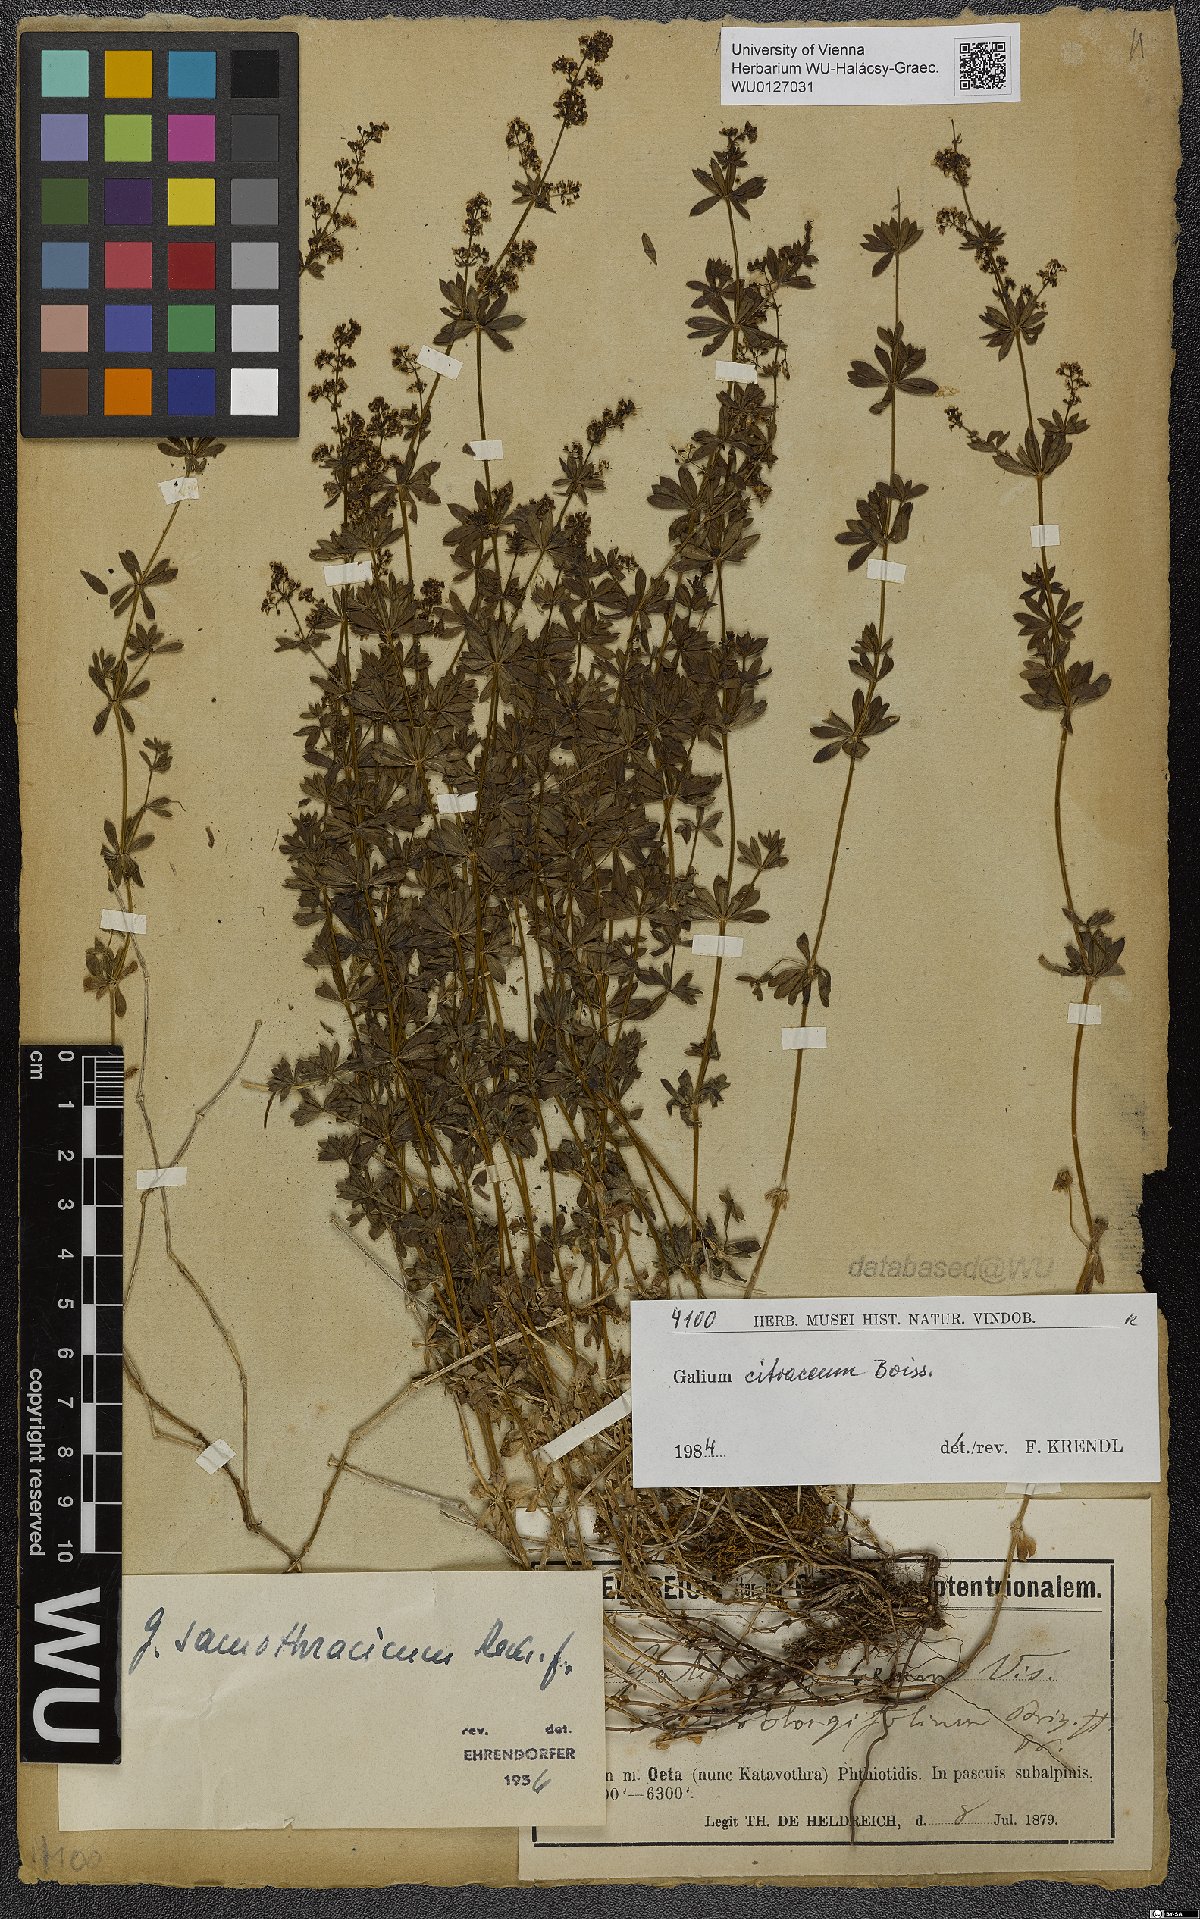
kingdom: Plantae
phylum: Tracheophyta
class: Magnoliopsida
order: Gentianales
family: Rubiaceae
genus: Galium
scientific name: Galium citraceum
